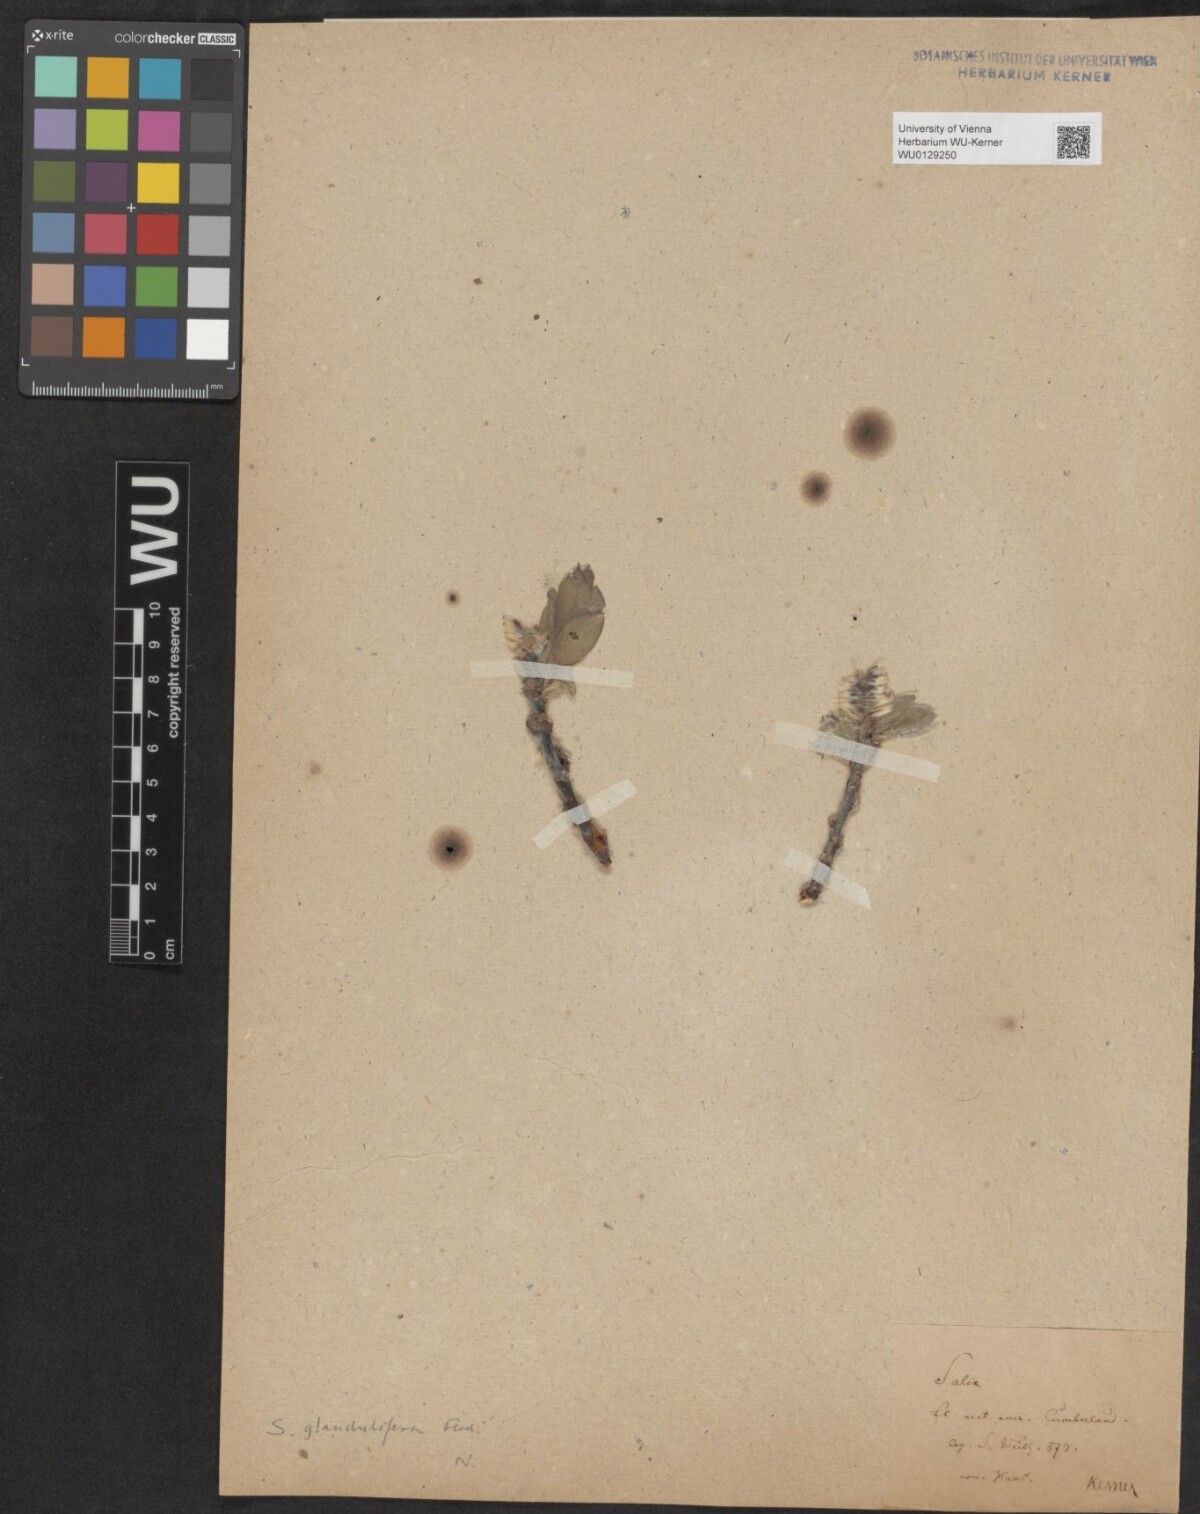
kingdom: Plantae
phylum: Tracheophyta
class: Magnoliopsida
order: Malpighiales
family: Salicaceae
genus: Salix
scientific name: Salix lanata
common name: Woolly willow
